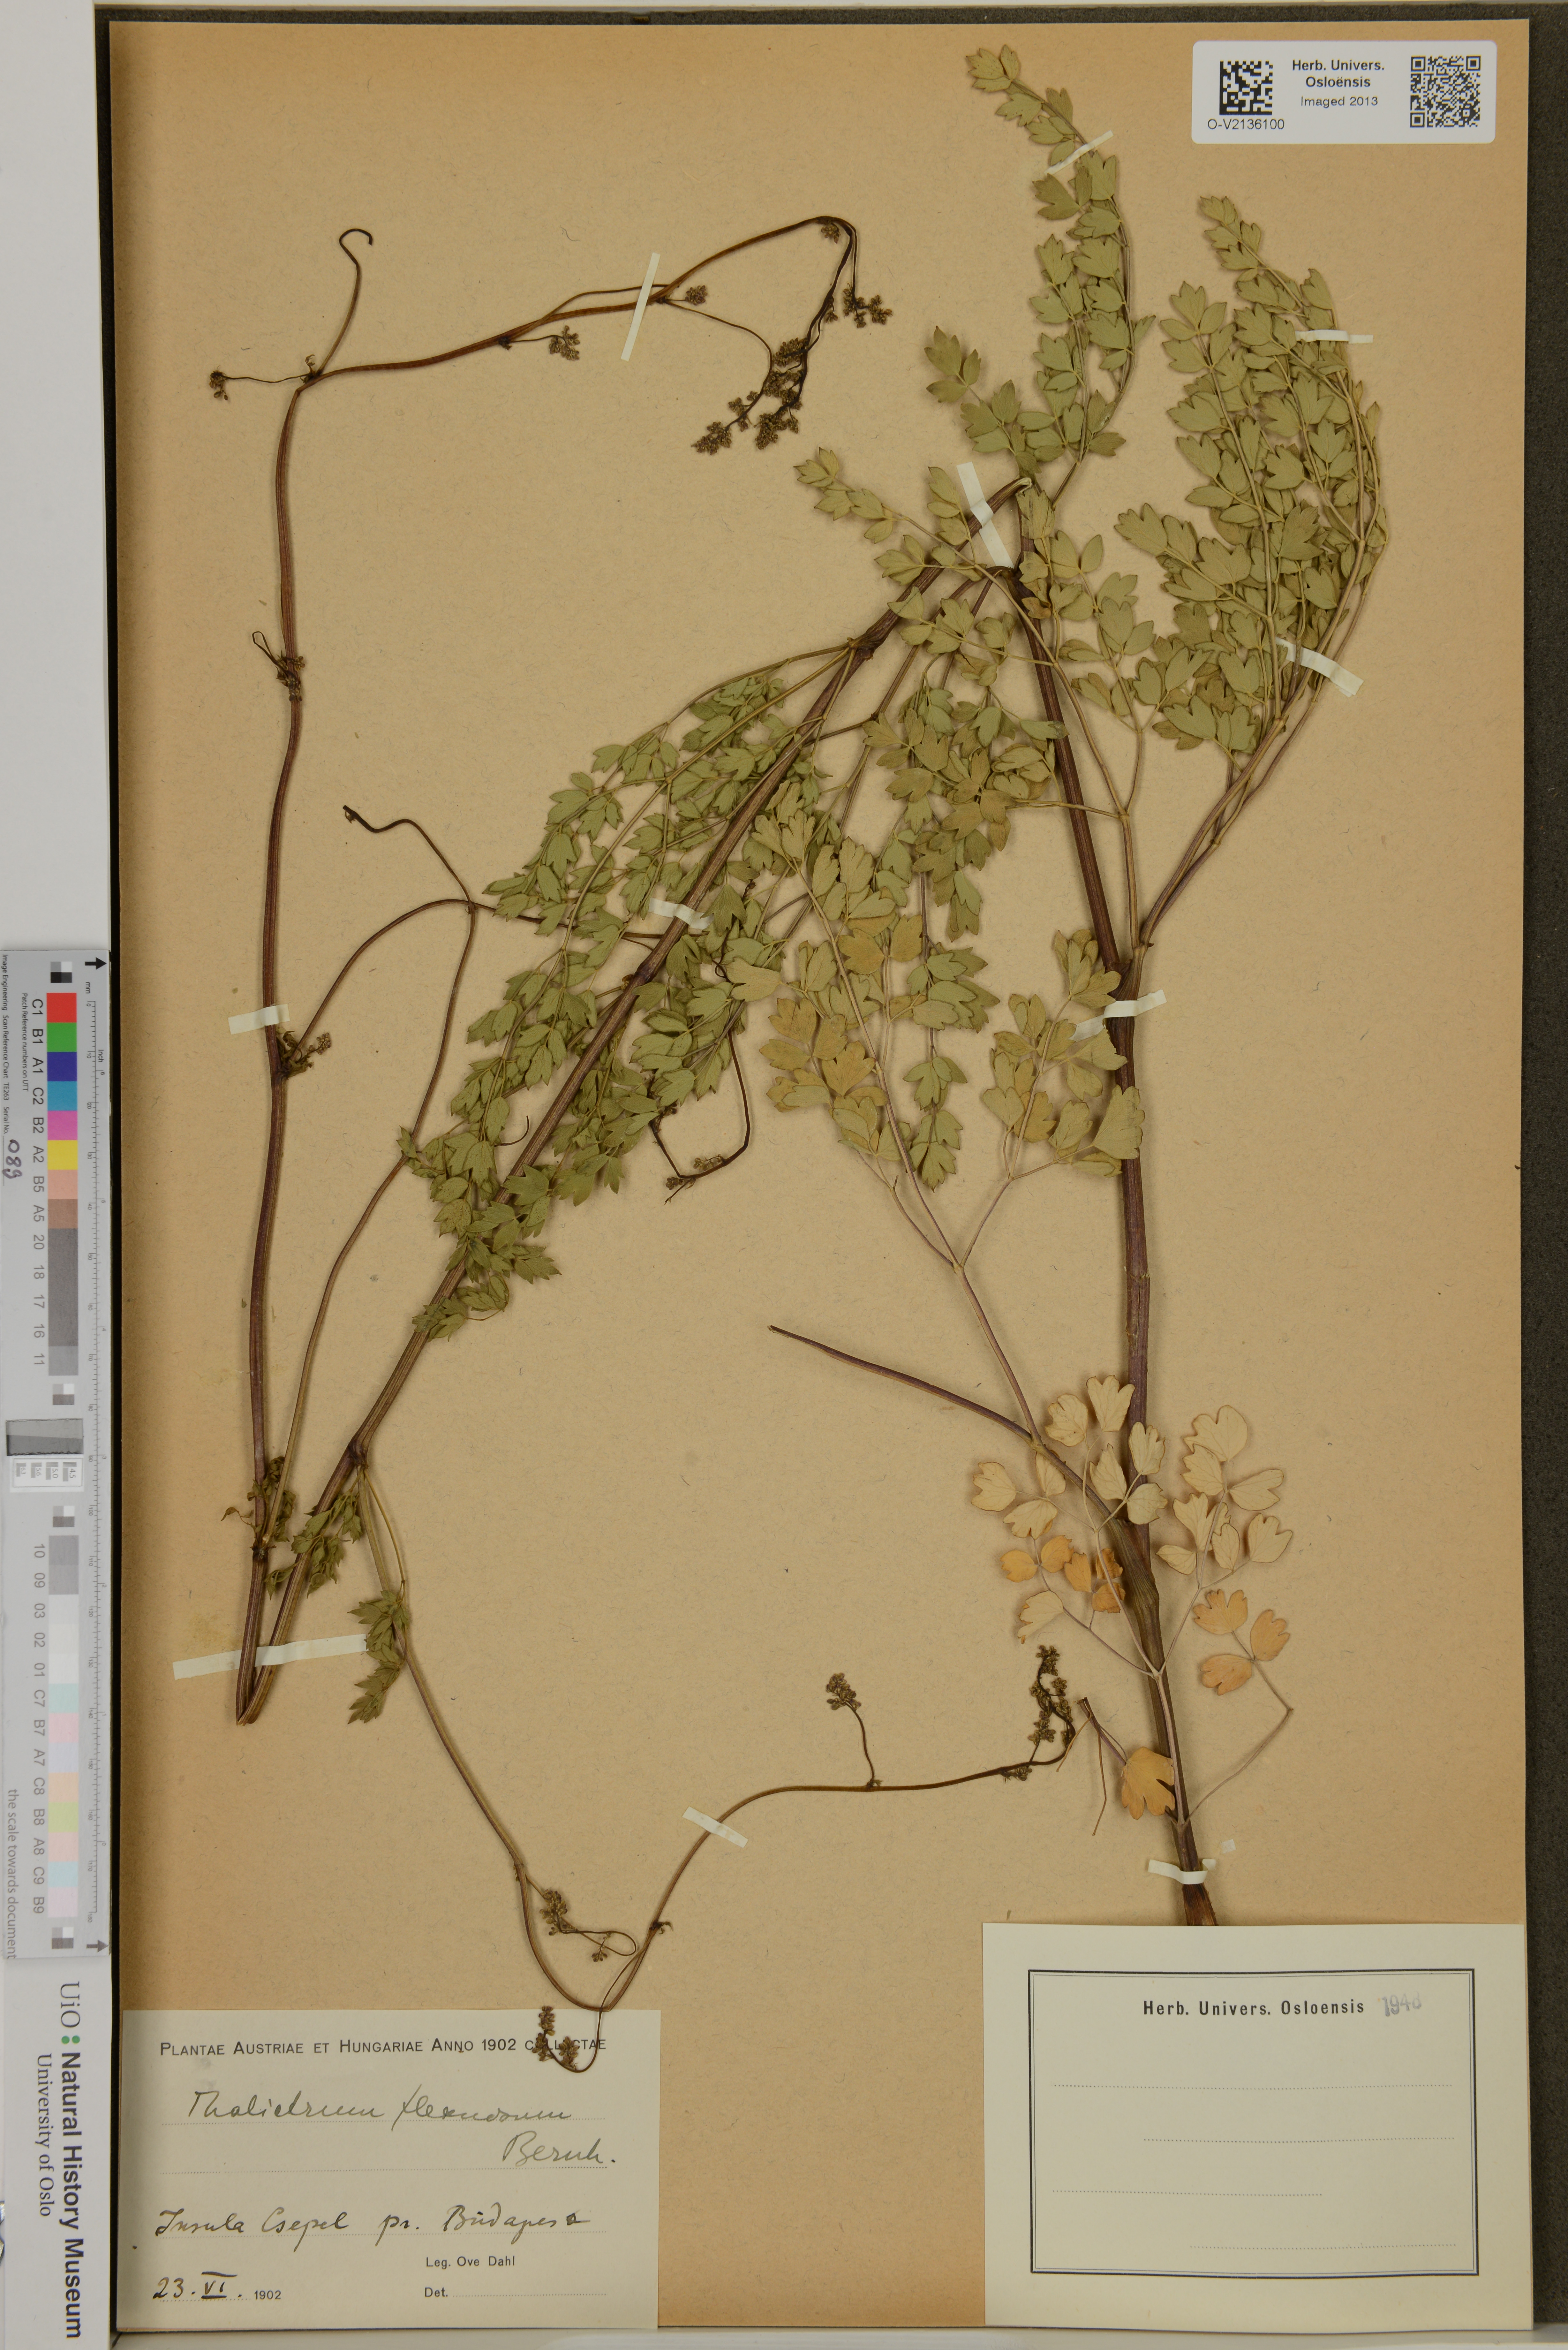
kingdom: Plantae
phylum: Tracheophyta
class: Magnoliopsida
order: Ranunculales
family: Ranunculaceae
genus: Thalictrum
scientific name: Thalictrum minus
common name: Lesser meadow-rue
